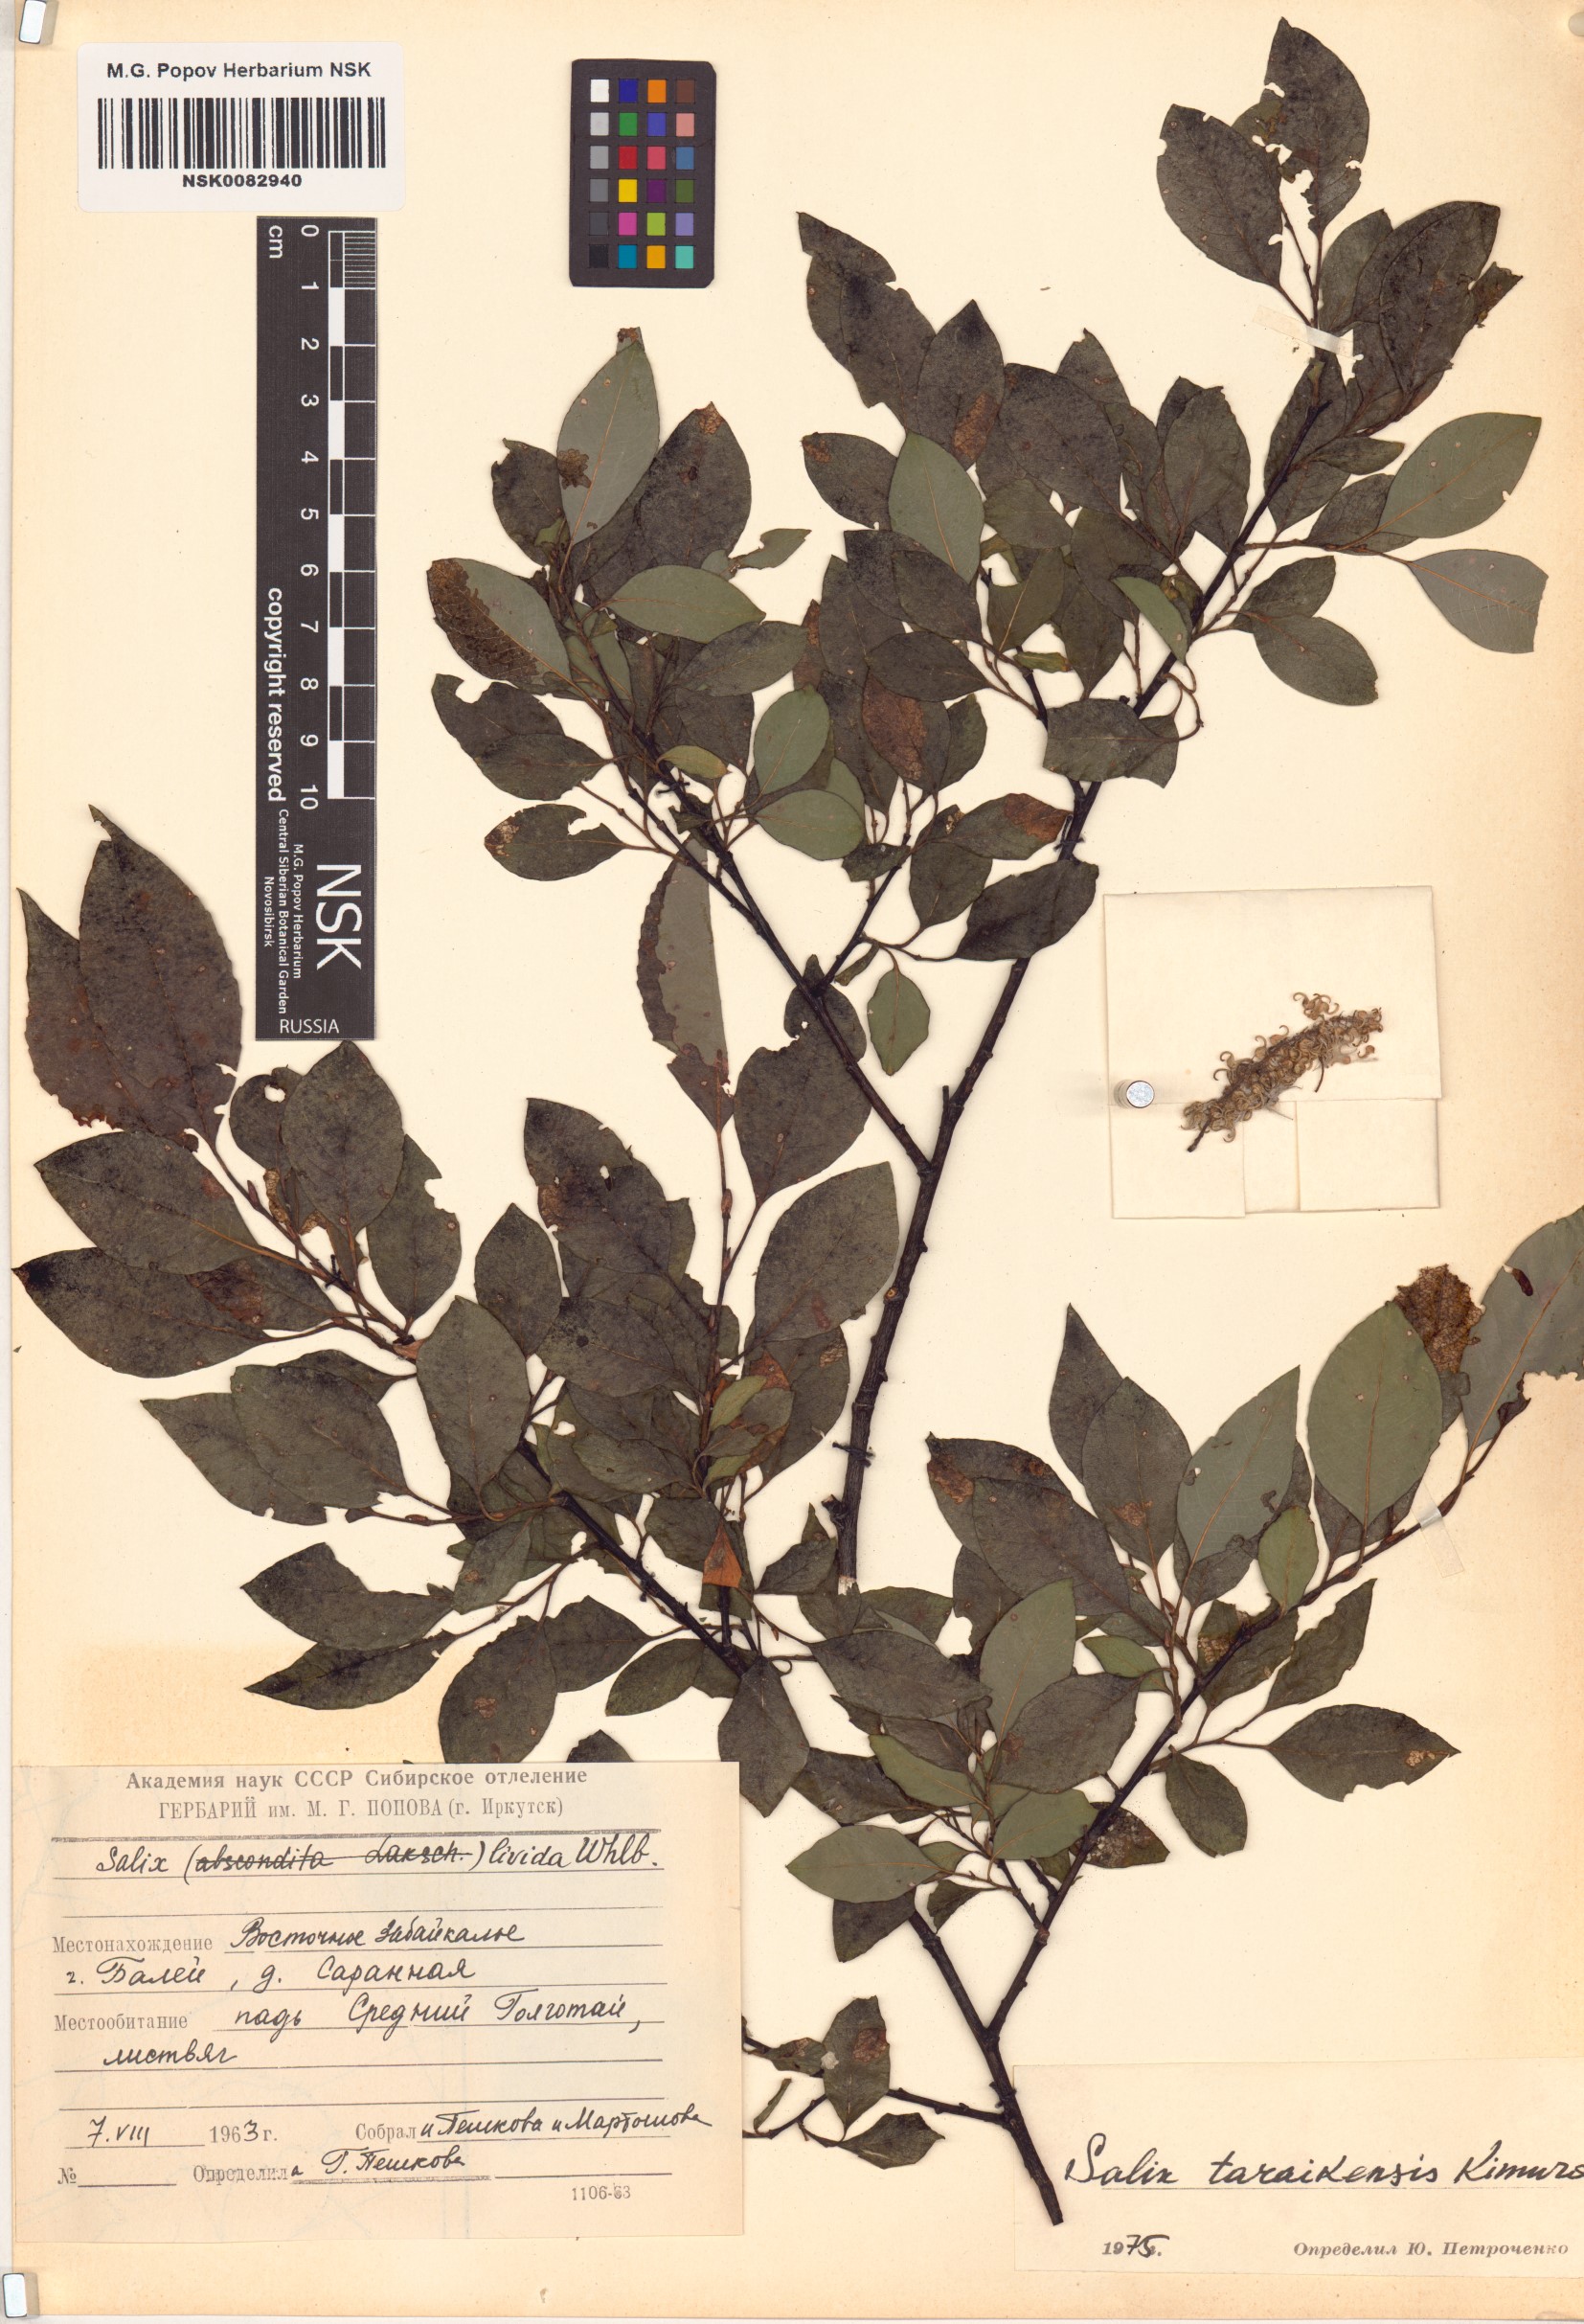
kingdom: Plantae
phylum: Tracheophyta
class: Magnoliopsida
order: Malpighiales
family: Salicaceae
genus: Salix
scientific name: Salix taraikensis
